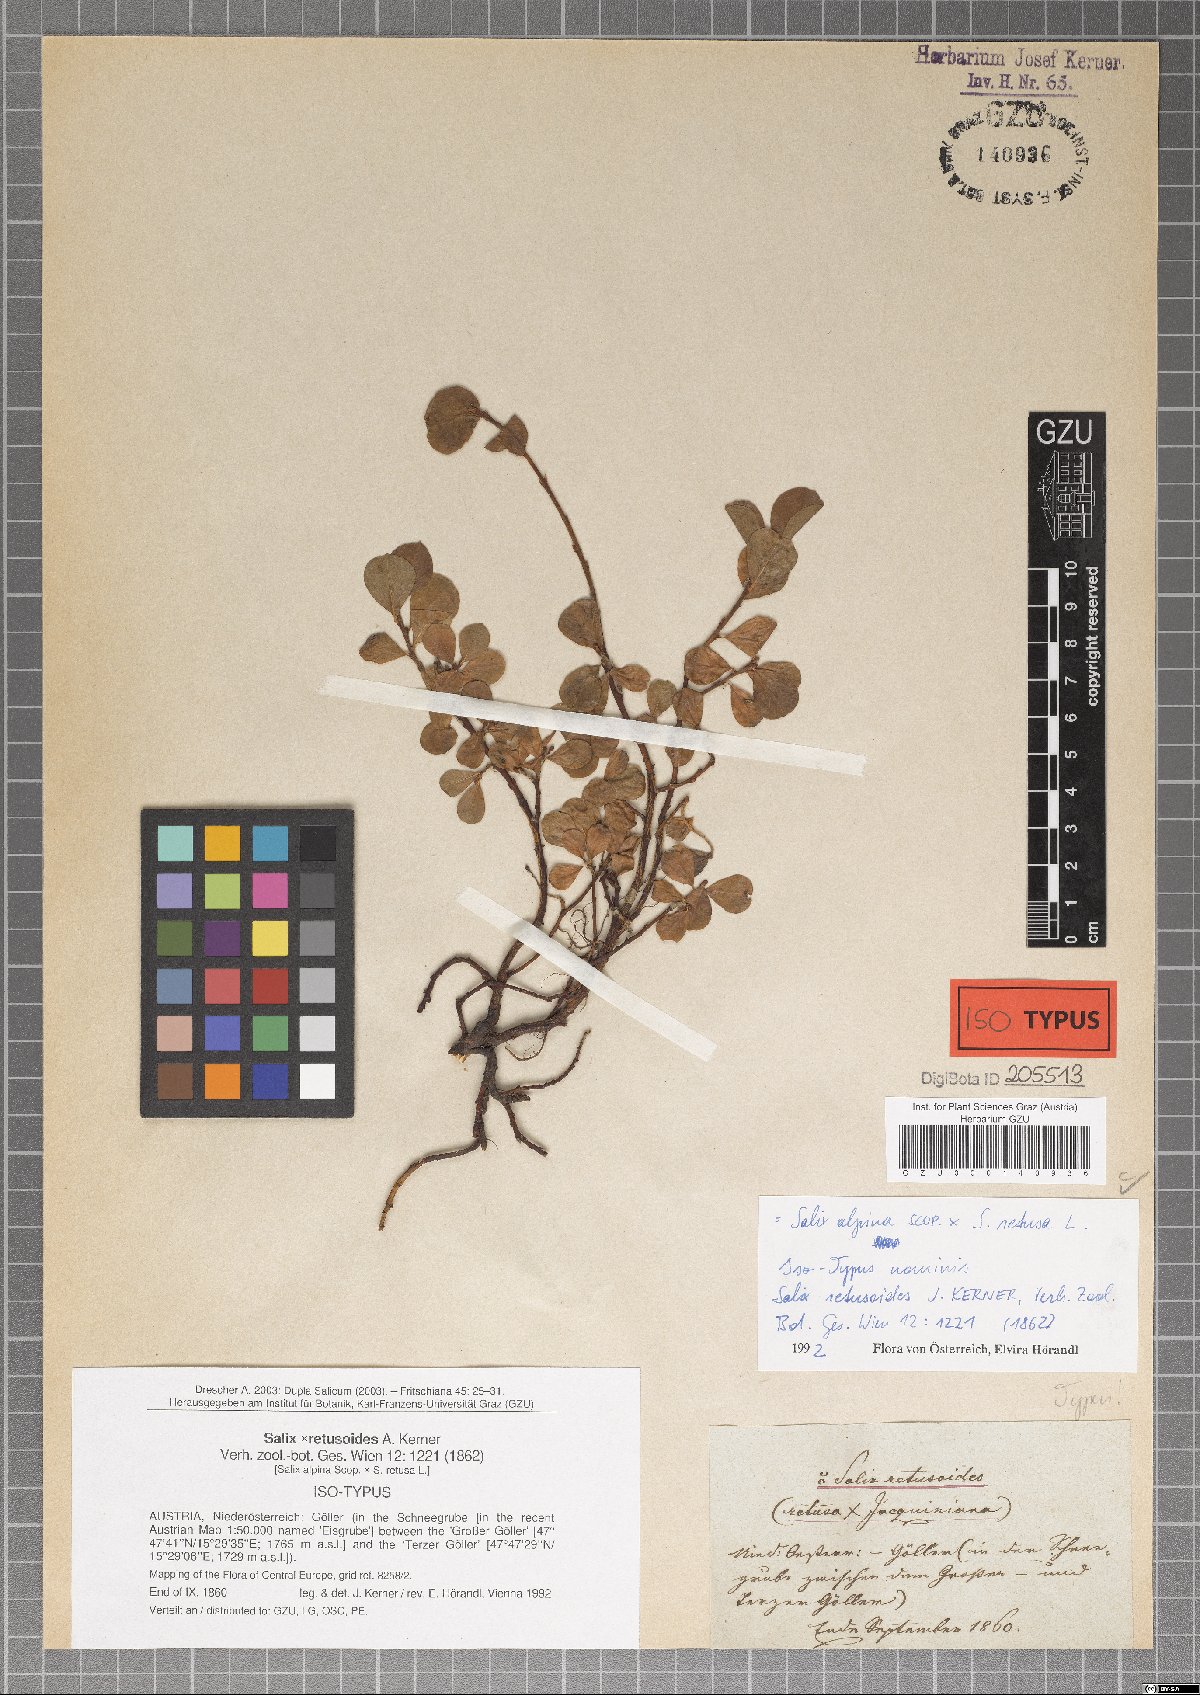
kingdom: Plantae
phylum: Tracheophyta
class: Magnoliopsida
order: Malpighiales
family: Salicaceae
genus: Salix
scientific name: Salix retusoides
